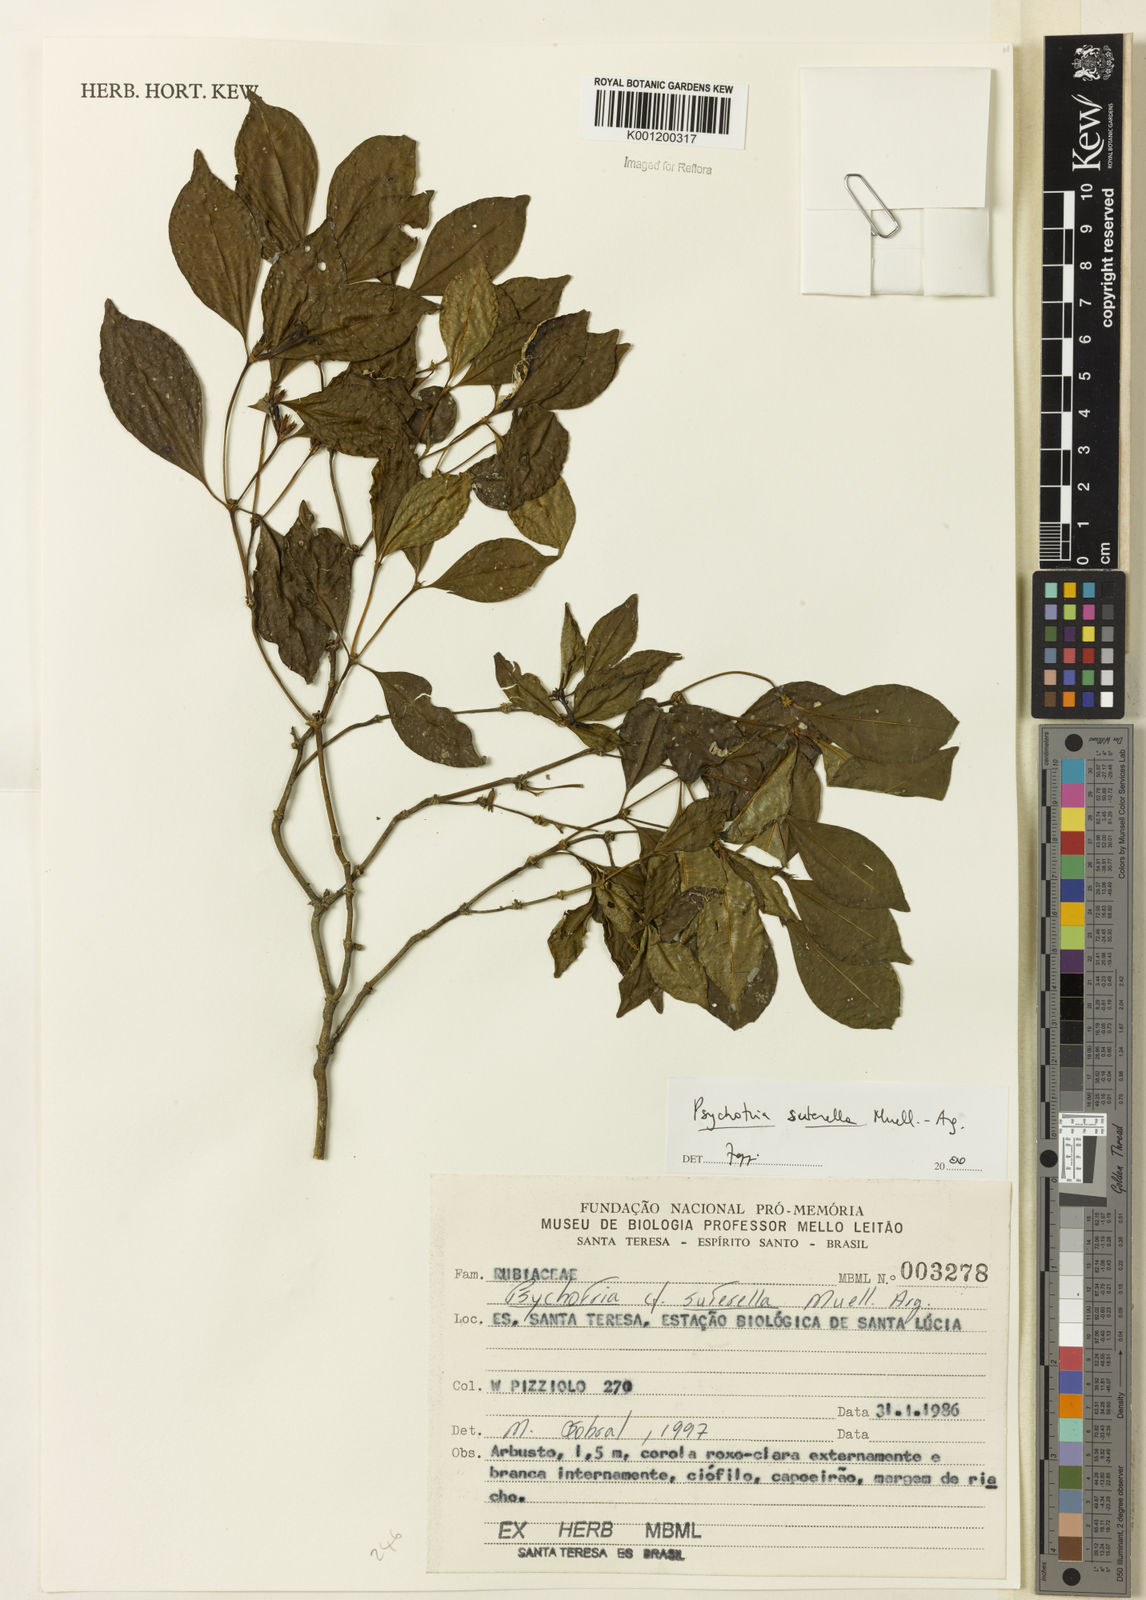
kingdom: Plantae
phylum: Tracheophyta
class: Magnoliopsida
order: Gentianales
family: Rubiaceae
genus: Psychotria
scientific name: Psychotria
